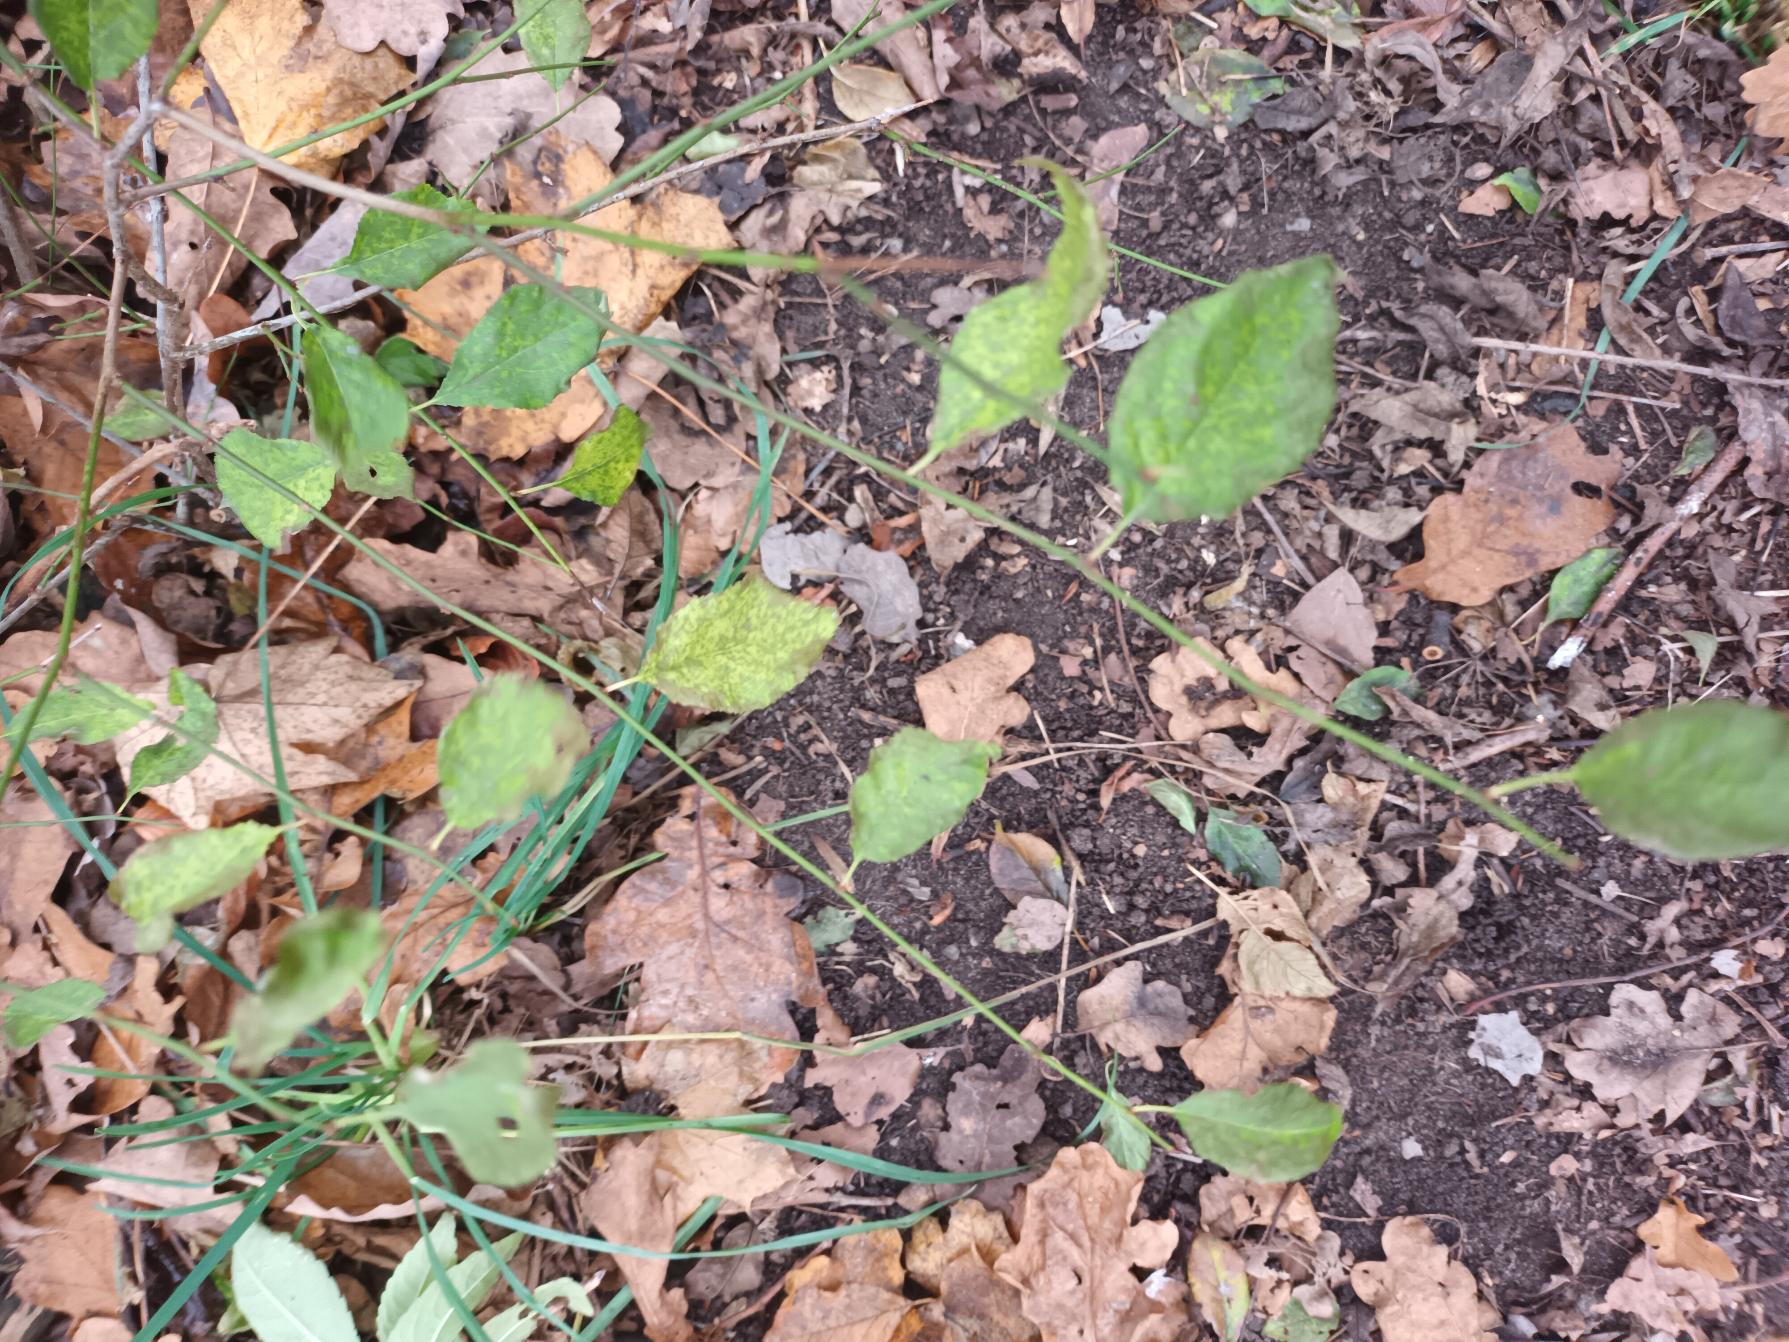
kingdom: Plantae
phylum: Tracheophyta
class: Magnoliopsida
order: Rosales
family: Rosaceae
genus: Prunus
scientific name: Prunus cerasifera
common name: Mirabel
